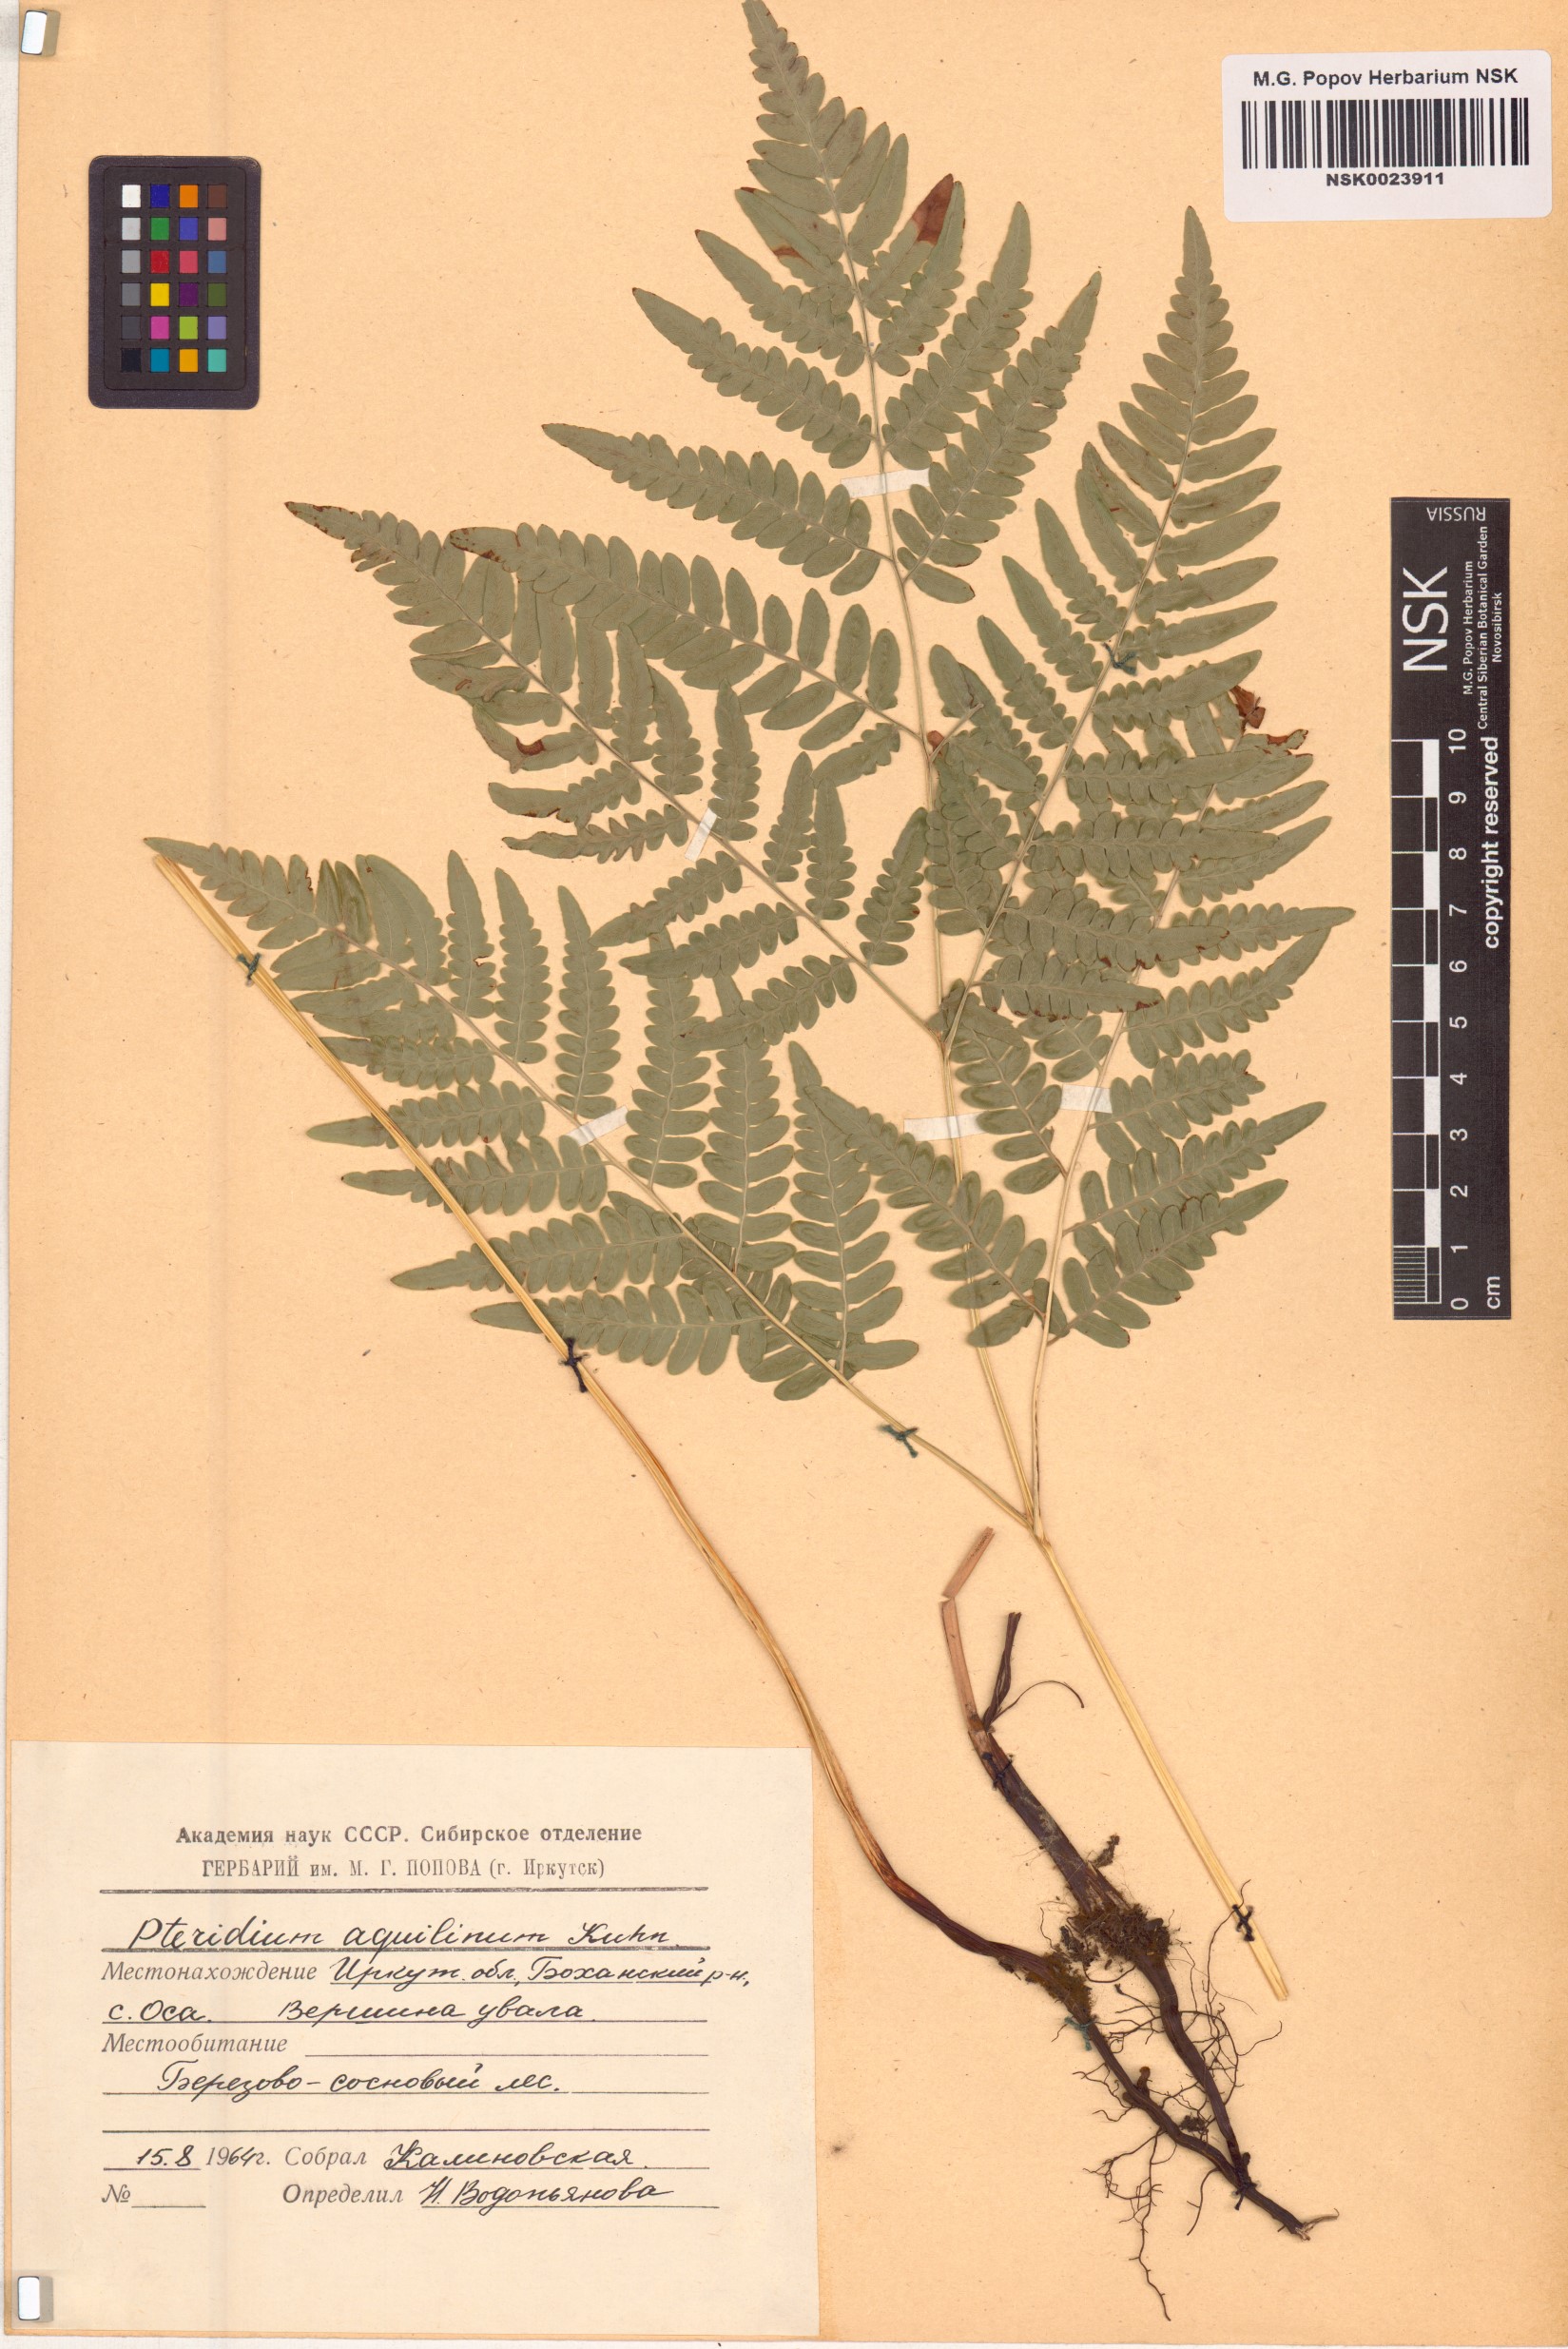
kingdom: Plantae
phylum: Tracheophyta
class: Polypodiopsida
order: Polypodiales
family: Dennstaedtiaceae
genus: Pteridium
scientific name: Pteridium aquilinum
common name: Bracken
